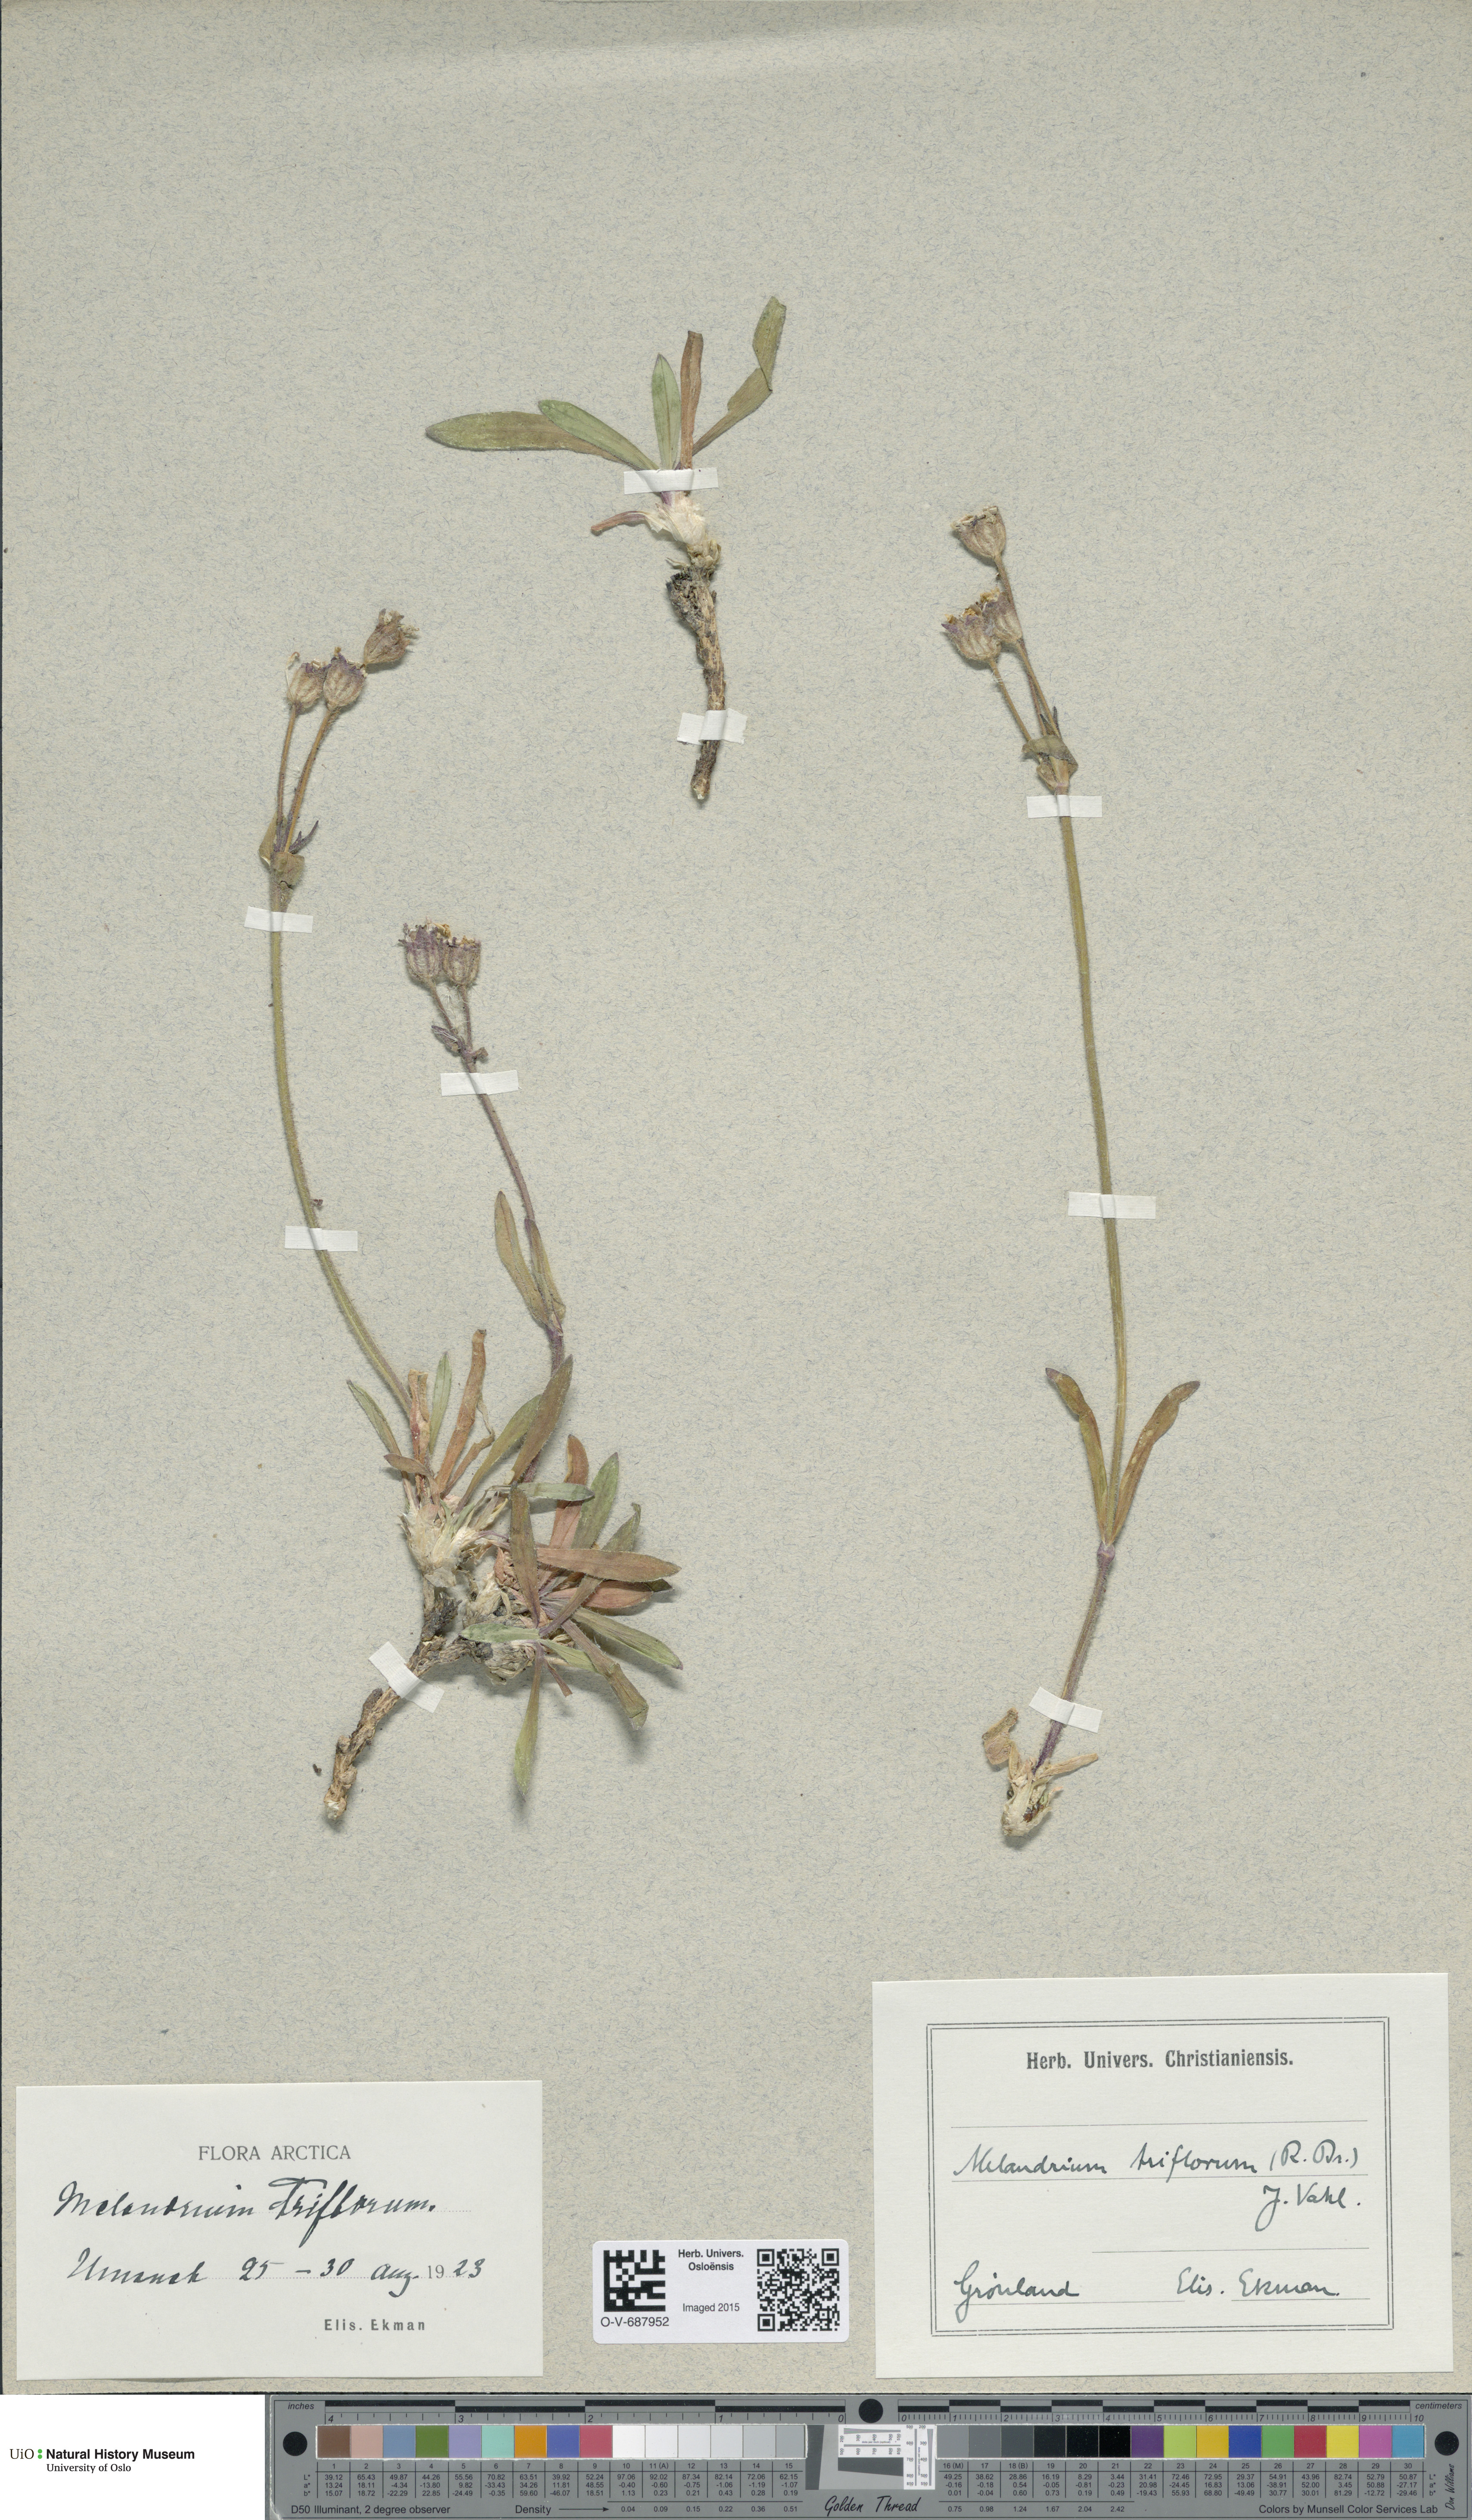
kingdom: Plantae
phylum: Tracheophyta
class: Magnoliopsida
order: Caryophyllales
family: Caryophyllaceae
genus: Silene
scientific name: Silene sorensenis
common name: Sorensen's campion
